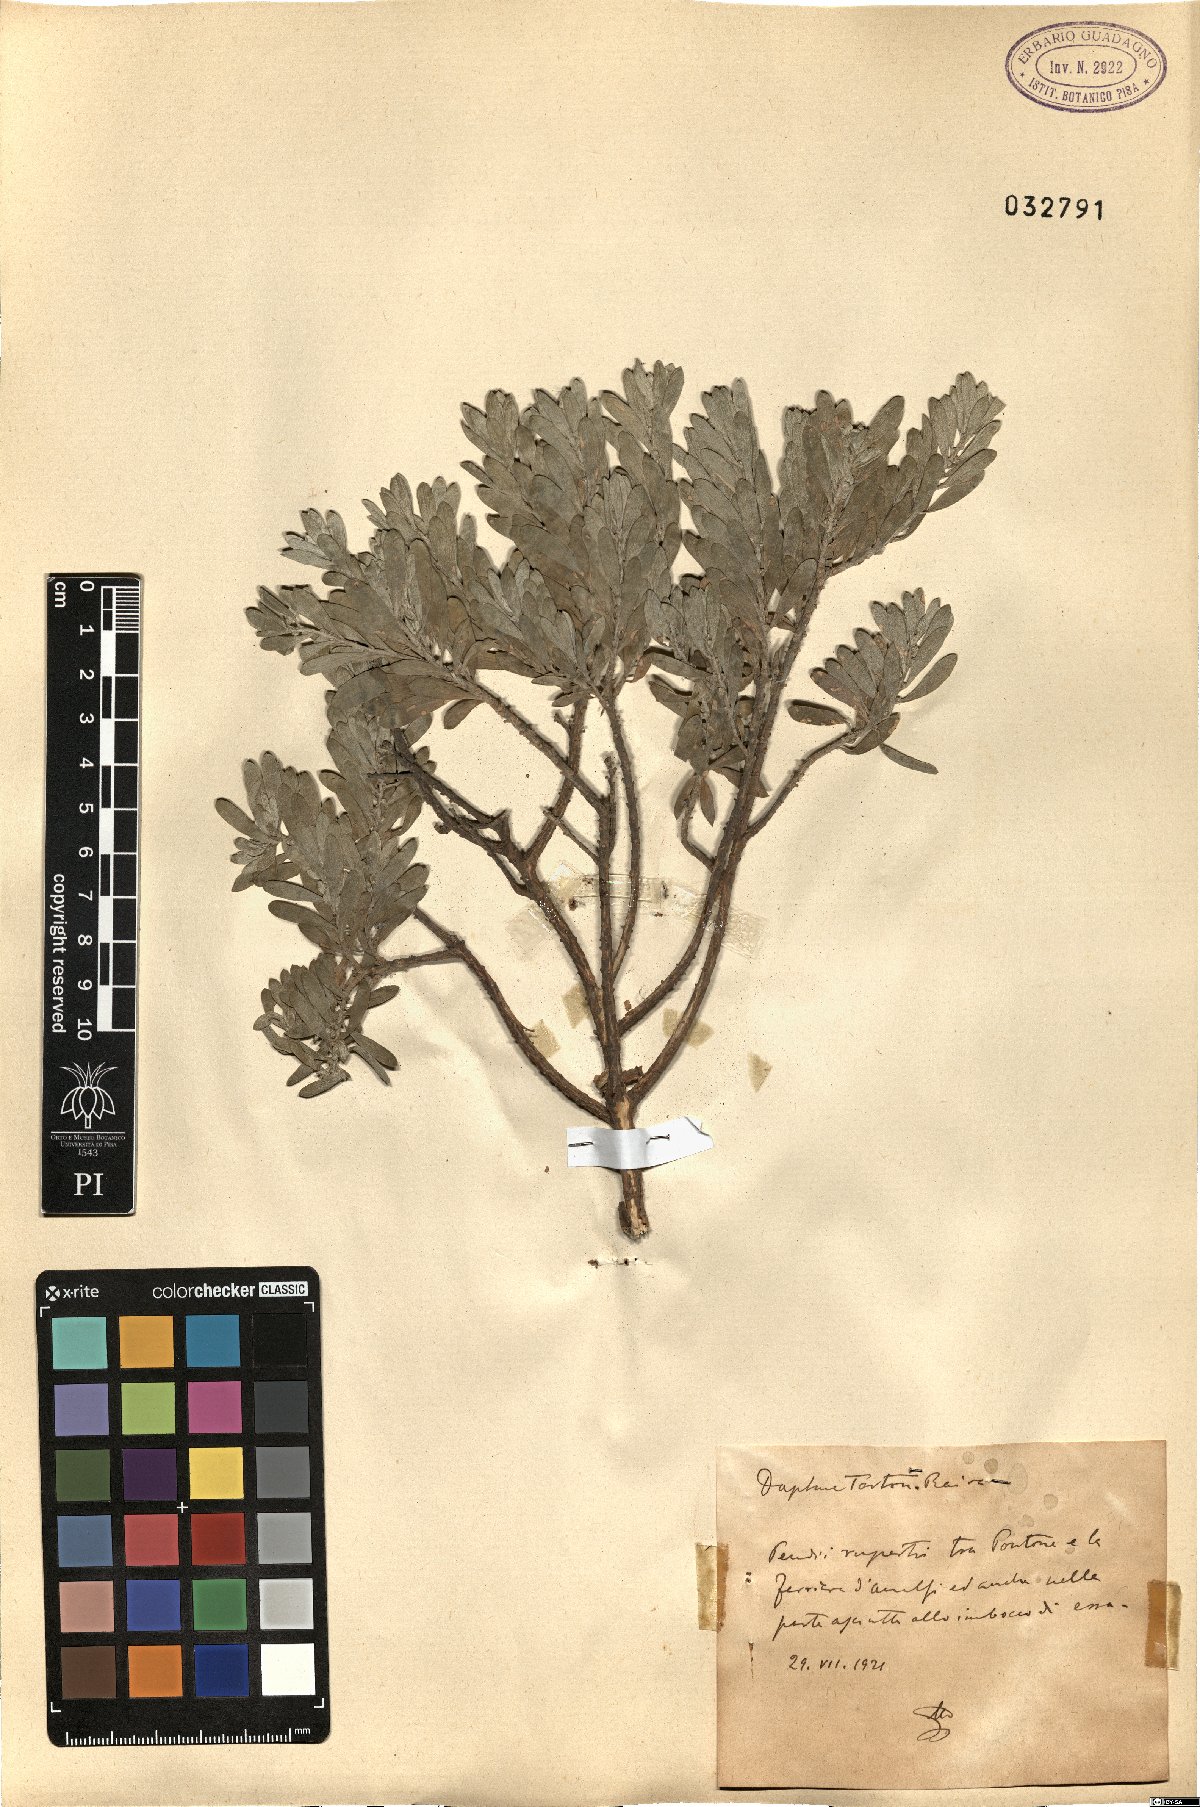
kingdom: Plantae
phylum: Tracheophyta
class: Magnoliopsida
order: Malvales
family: Thymelaeaceae
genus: Thymelaea
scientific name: Thymelaea tartonraira
